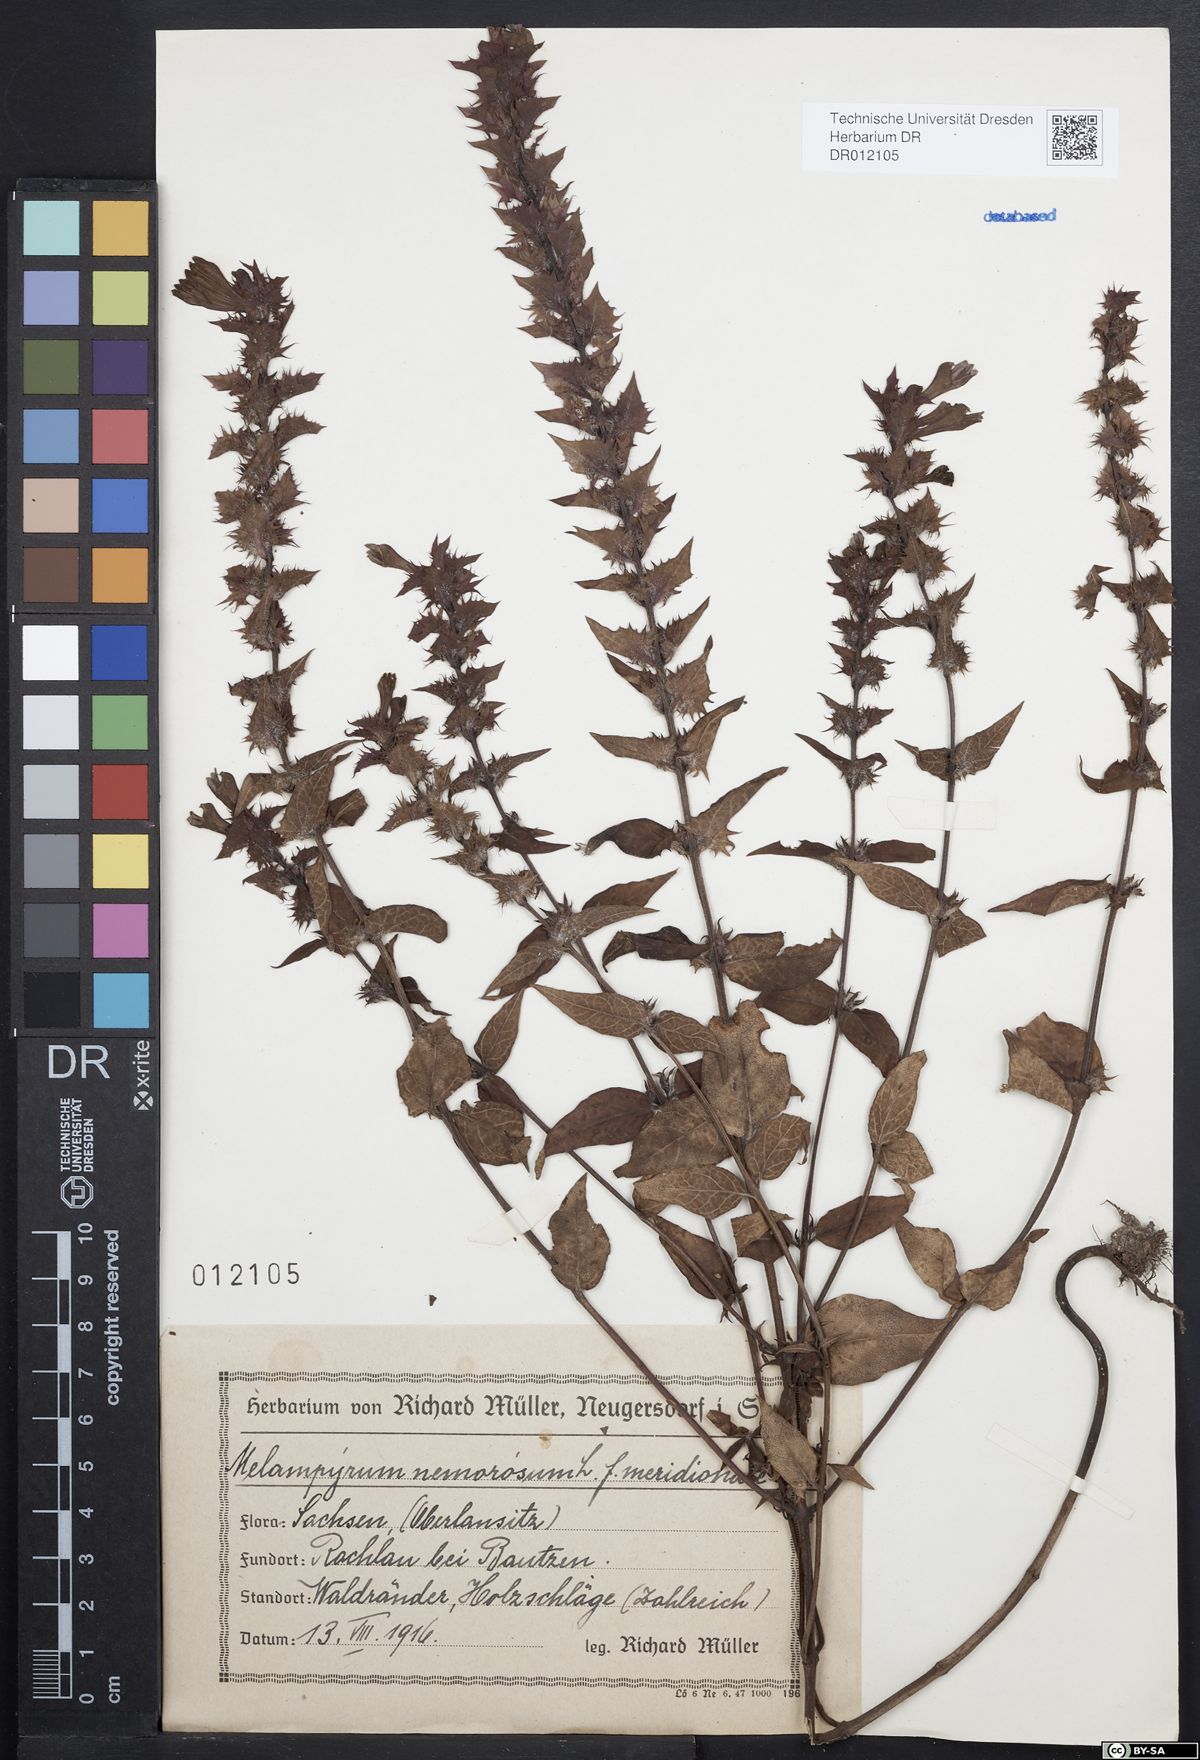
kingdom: Plantae
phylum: Tracheophyta
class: Magnoliopsida
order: Lamiales
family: Orobanchaceae
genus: Melampyrum
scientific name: Melampyrum nemorosum
